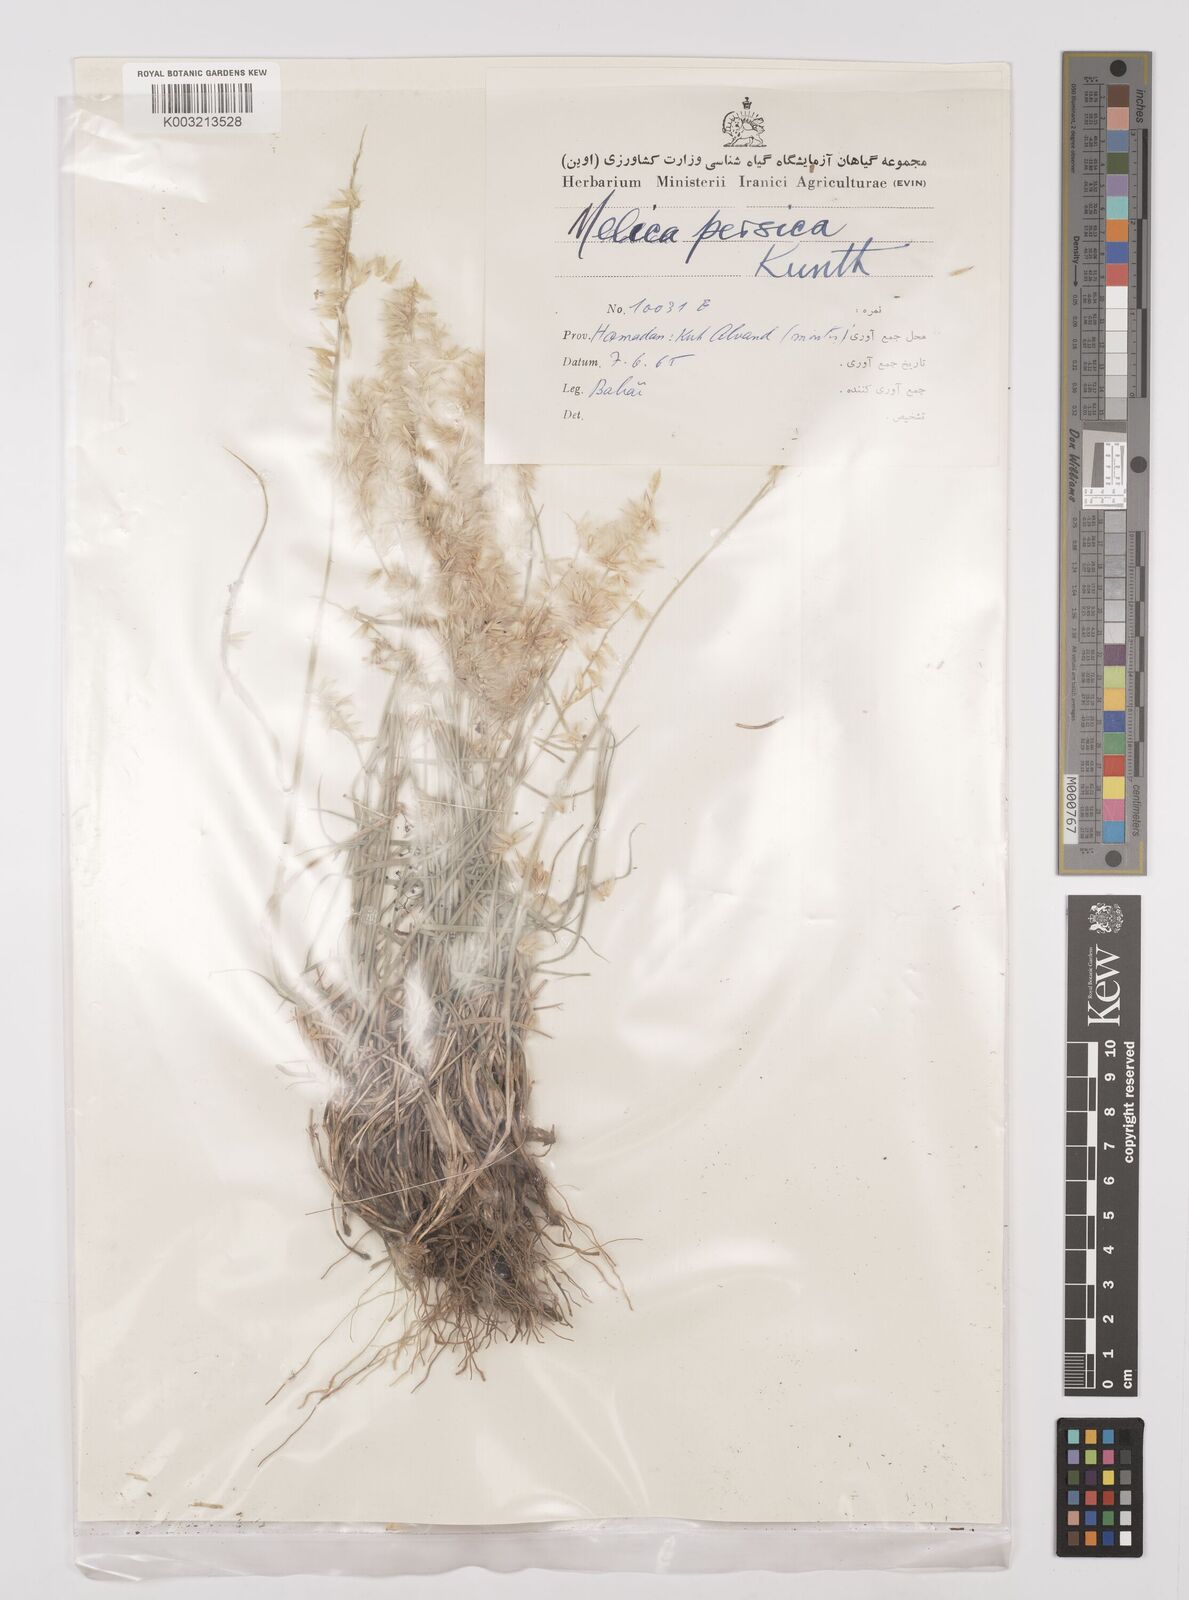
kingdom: Plantae
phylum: Tracheophyta
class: Liliopsida
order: Poales
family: Poaceae
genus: Melica
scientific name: Melica persica
